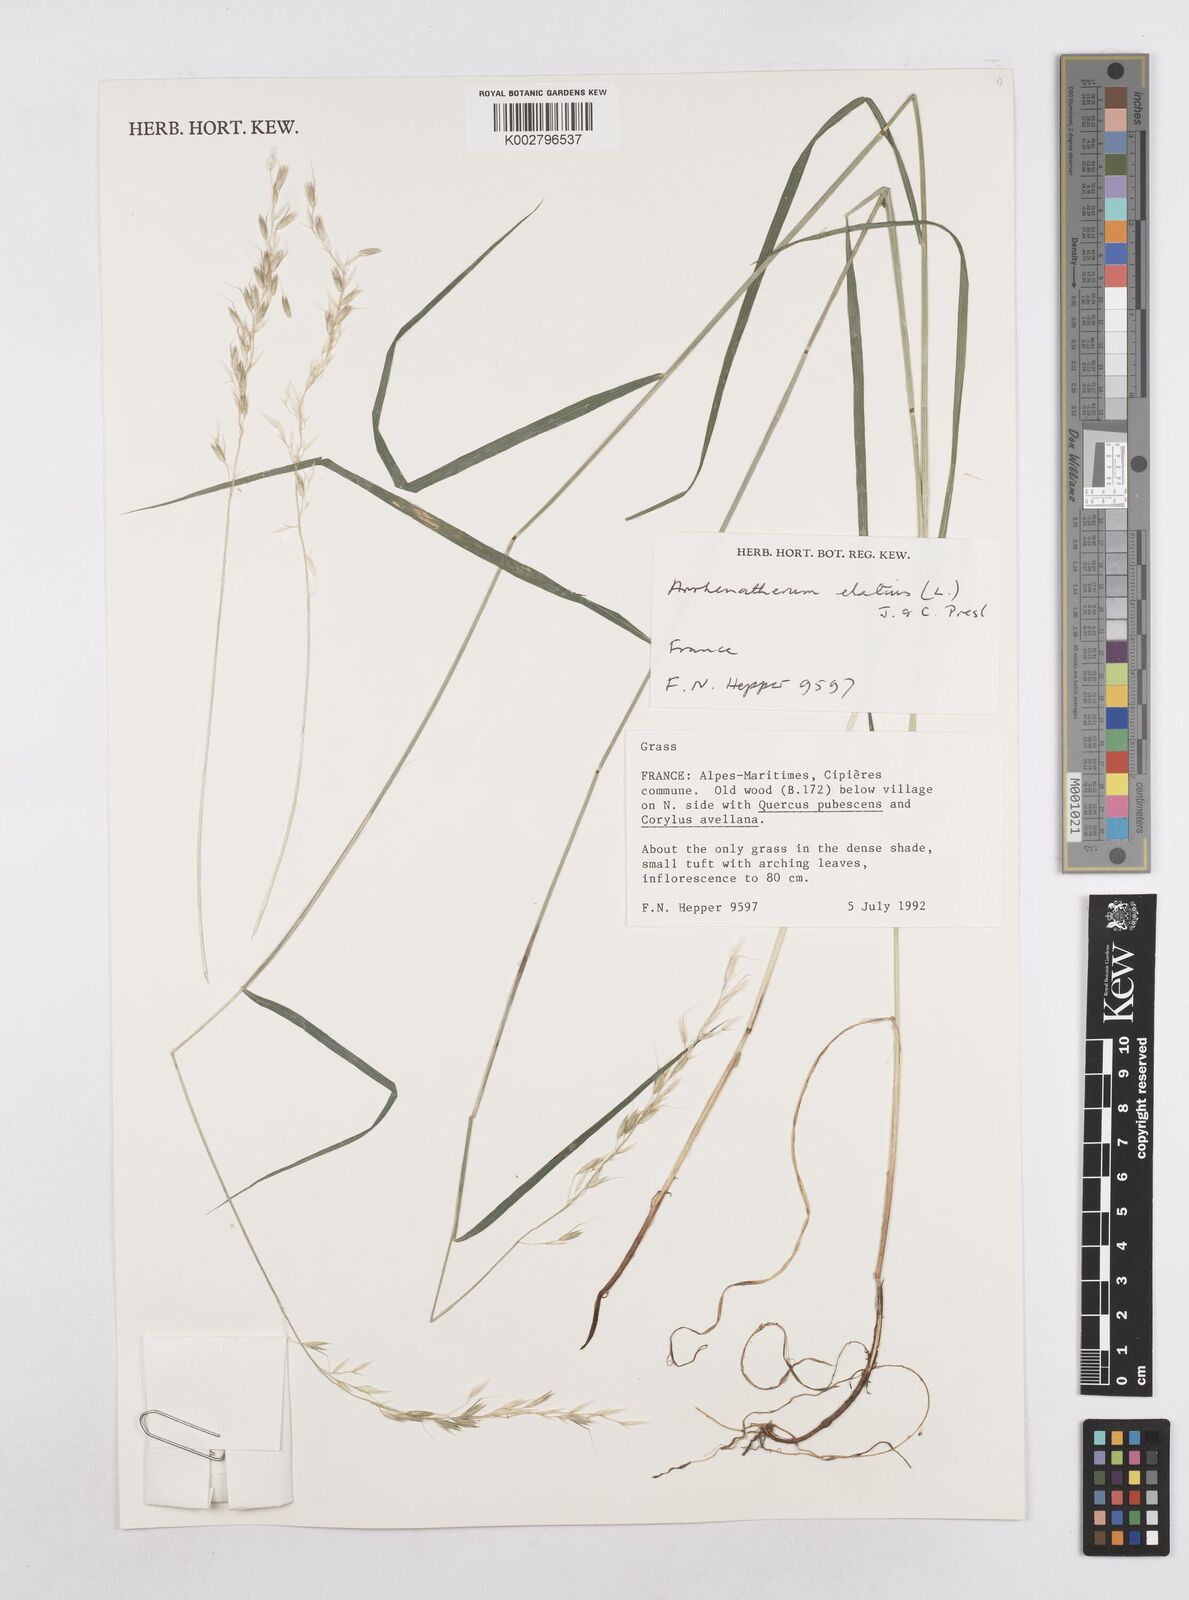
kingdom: Plantae
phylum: Tracheophyta
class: Liliopsida
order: Poales
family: Poaceae
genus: Arrhenatherum
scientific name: Arrhenatherum elatius
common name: Tall oatgrass
